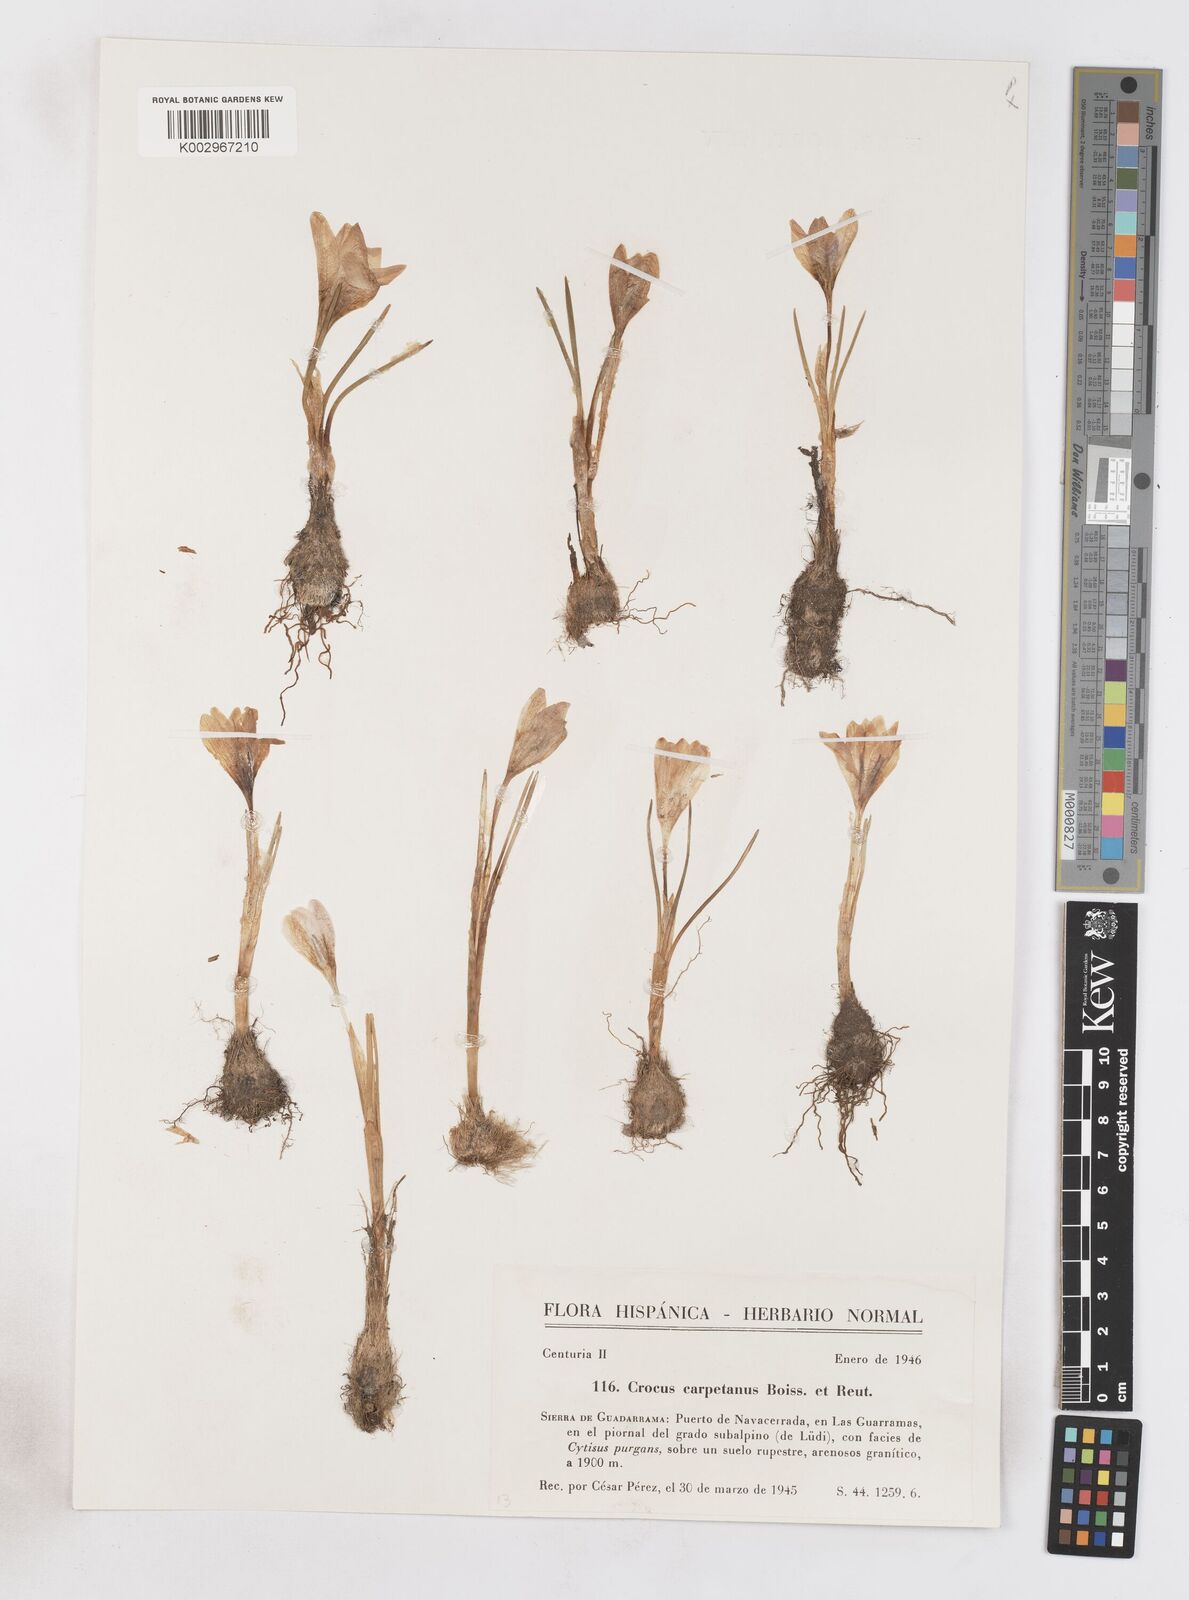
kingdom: Plantae
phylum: Tracheophyta
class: Liliopsida
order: Asparagales
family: Iridaceae
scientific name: Iridaceae
